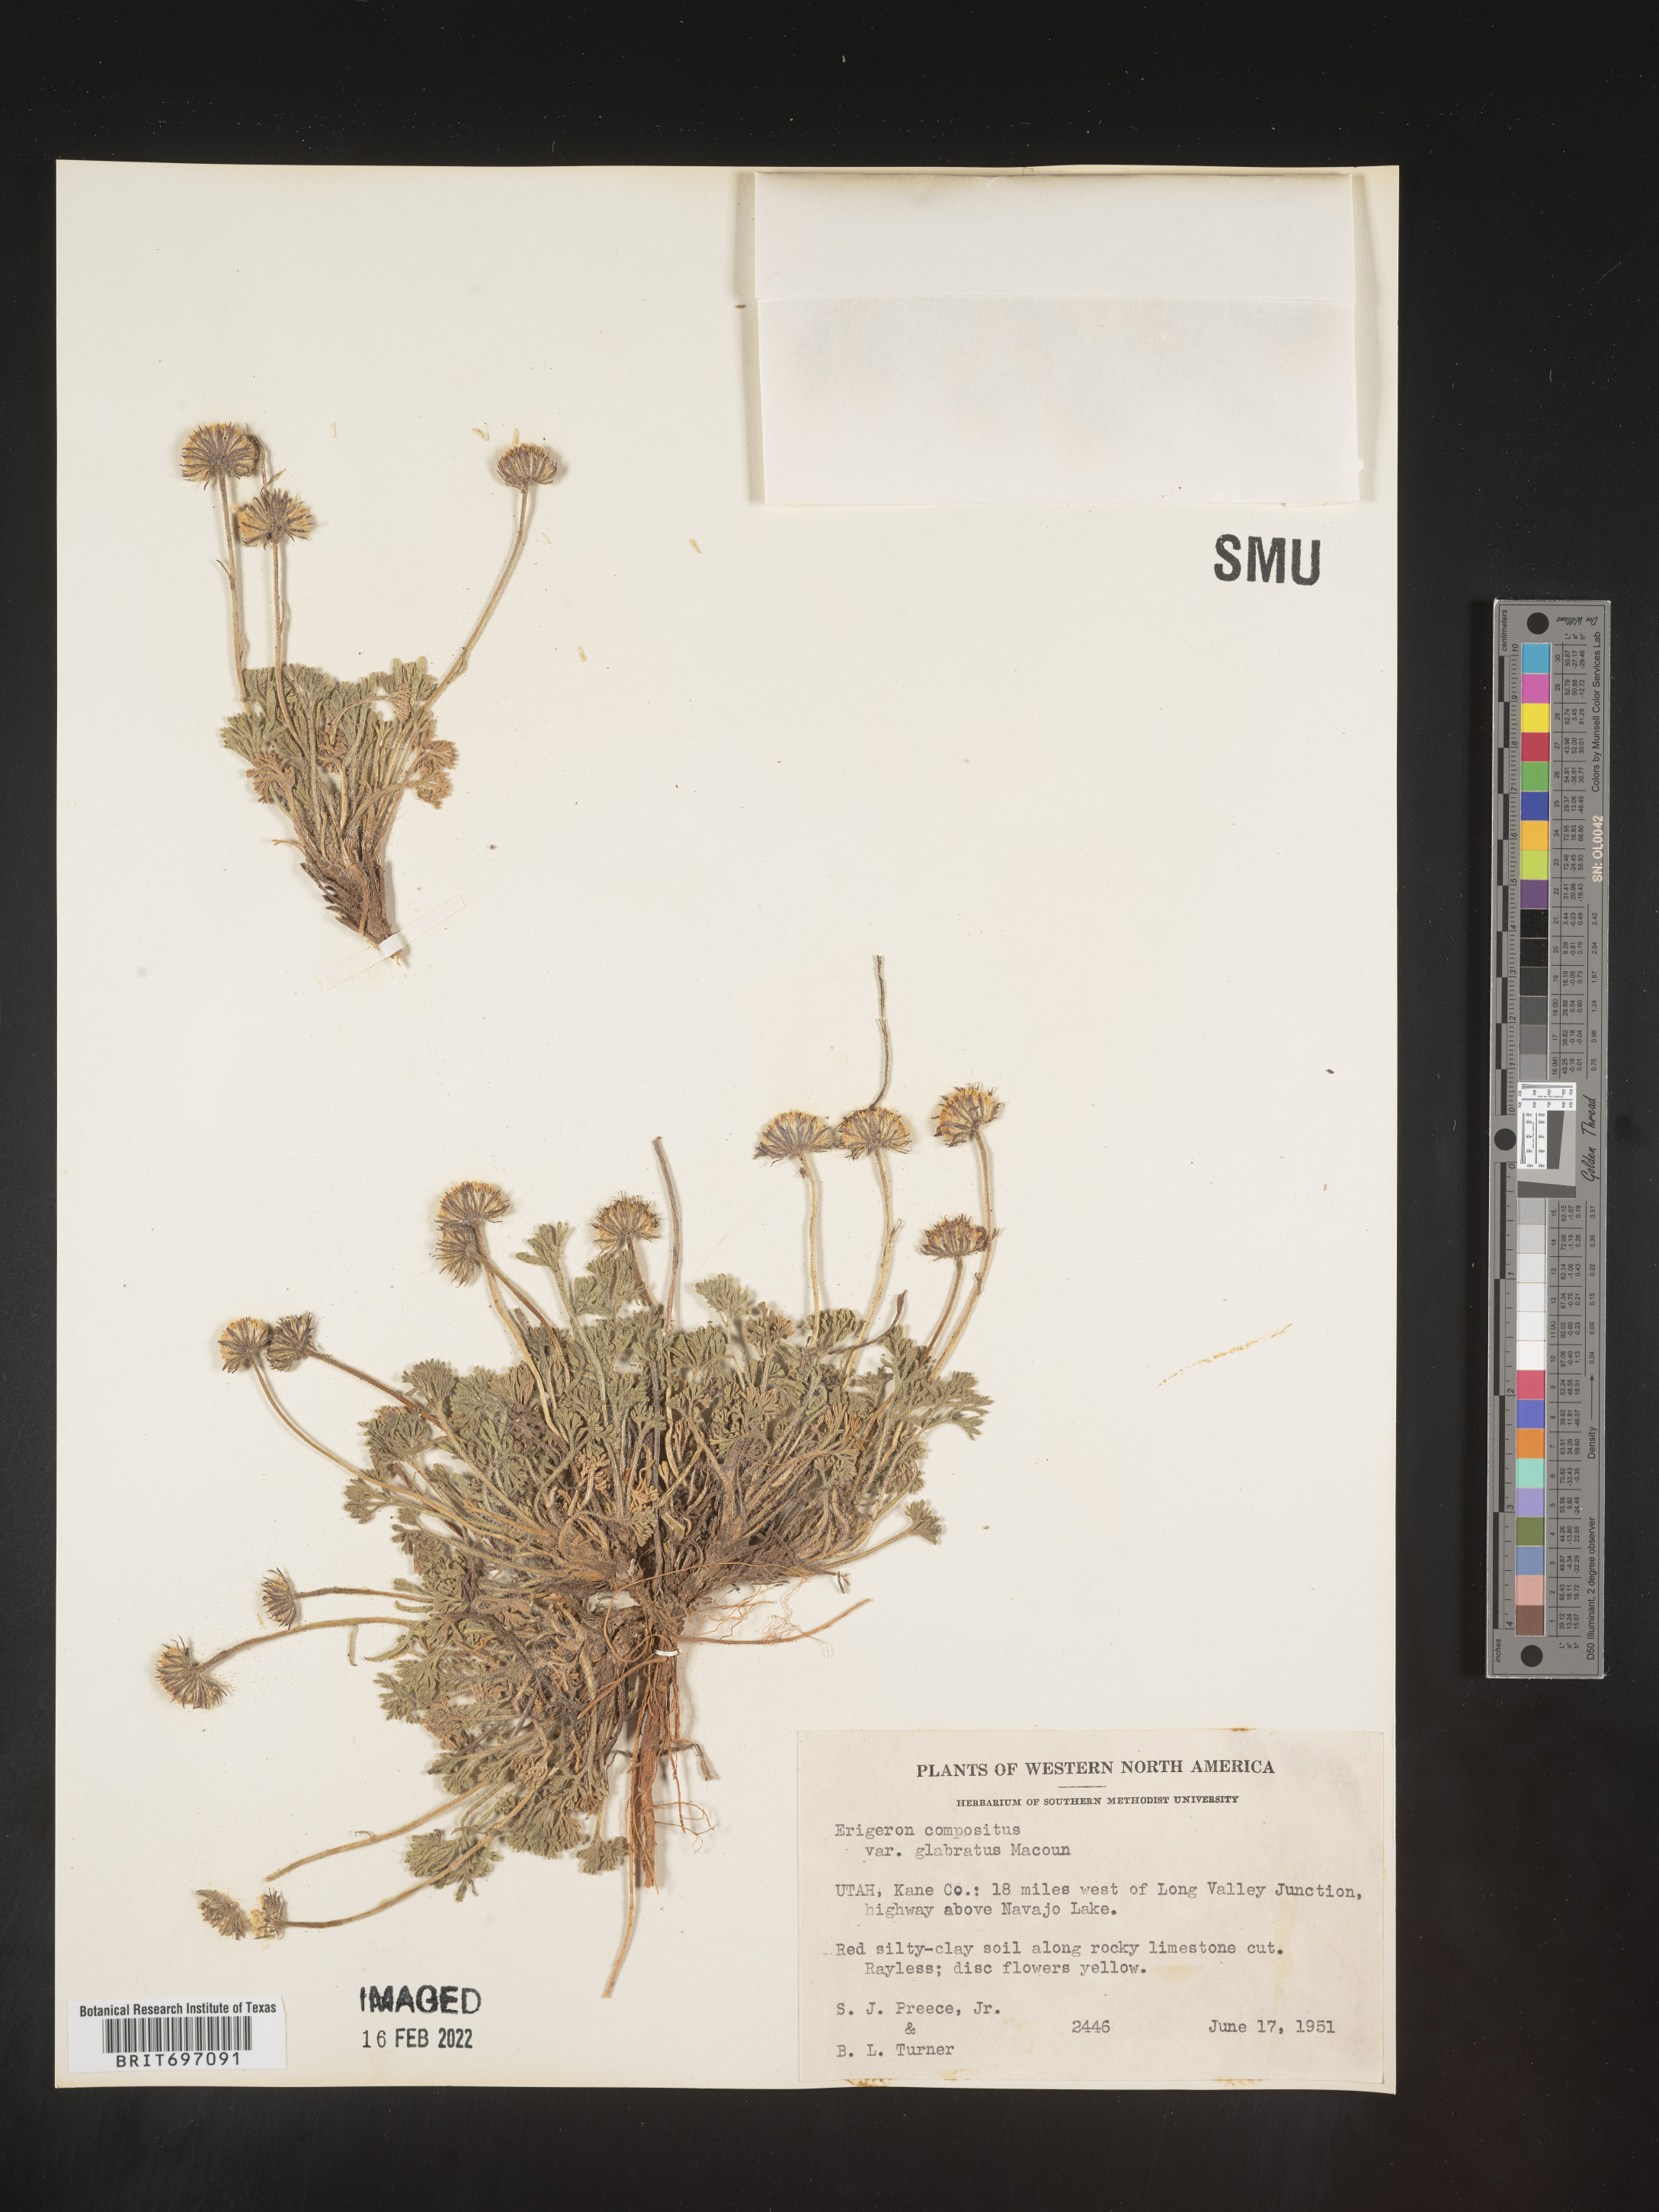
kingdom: Plantae
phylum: Tracheophyta
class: Magnoliopsida
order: Asterales
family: Asteraceae
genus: Erigeron
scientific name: Erigeron compositus
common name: Dwarf mountain fleabane
